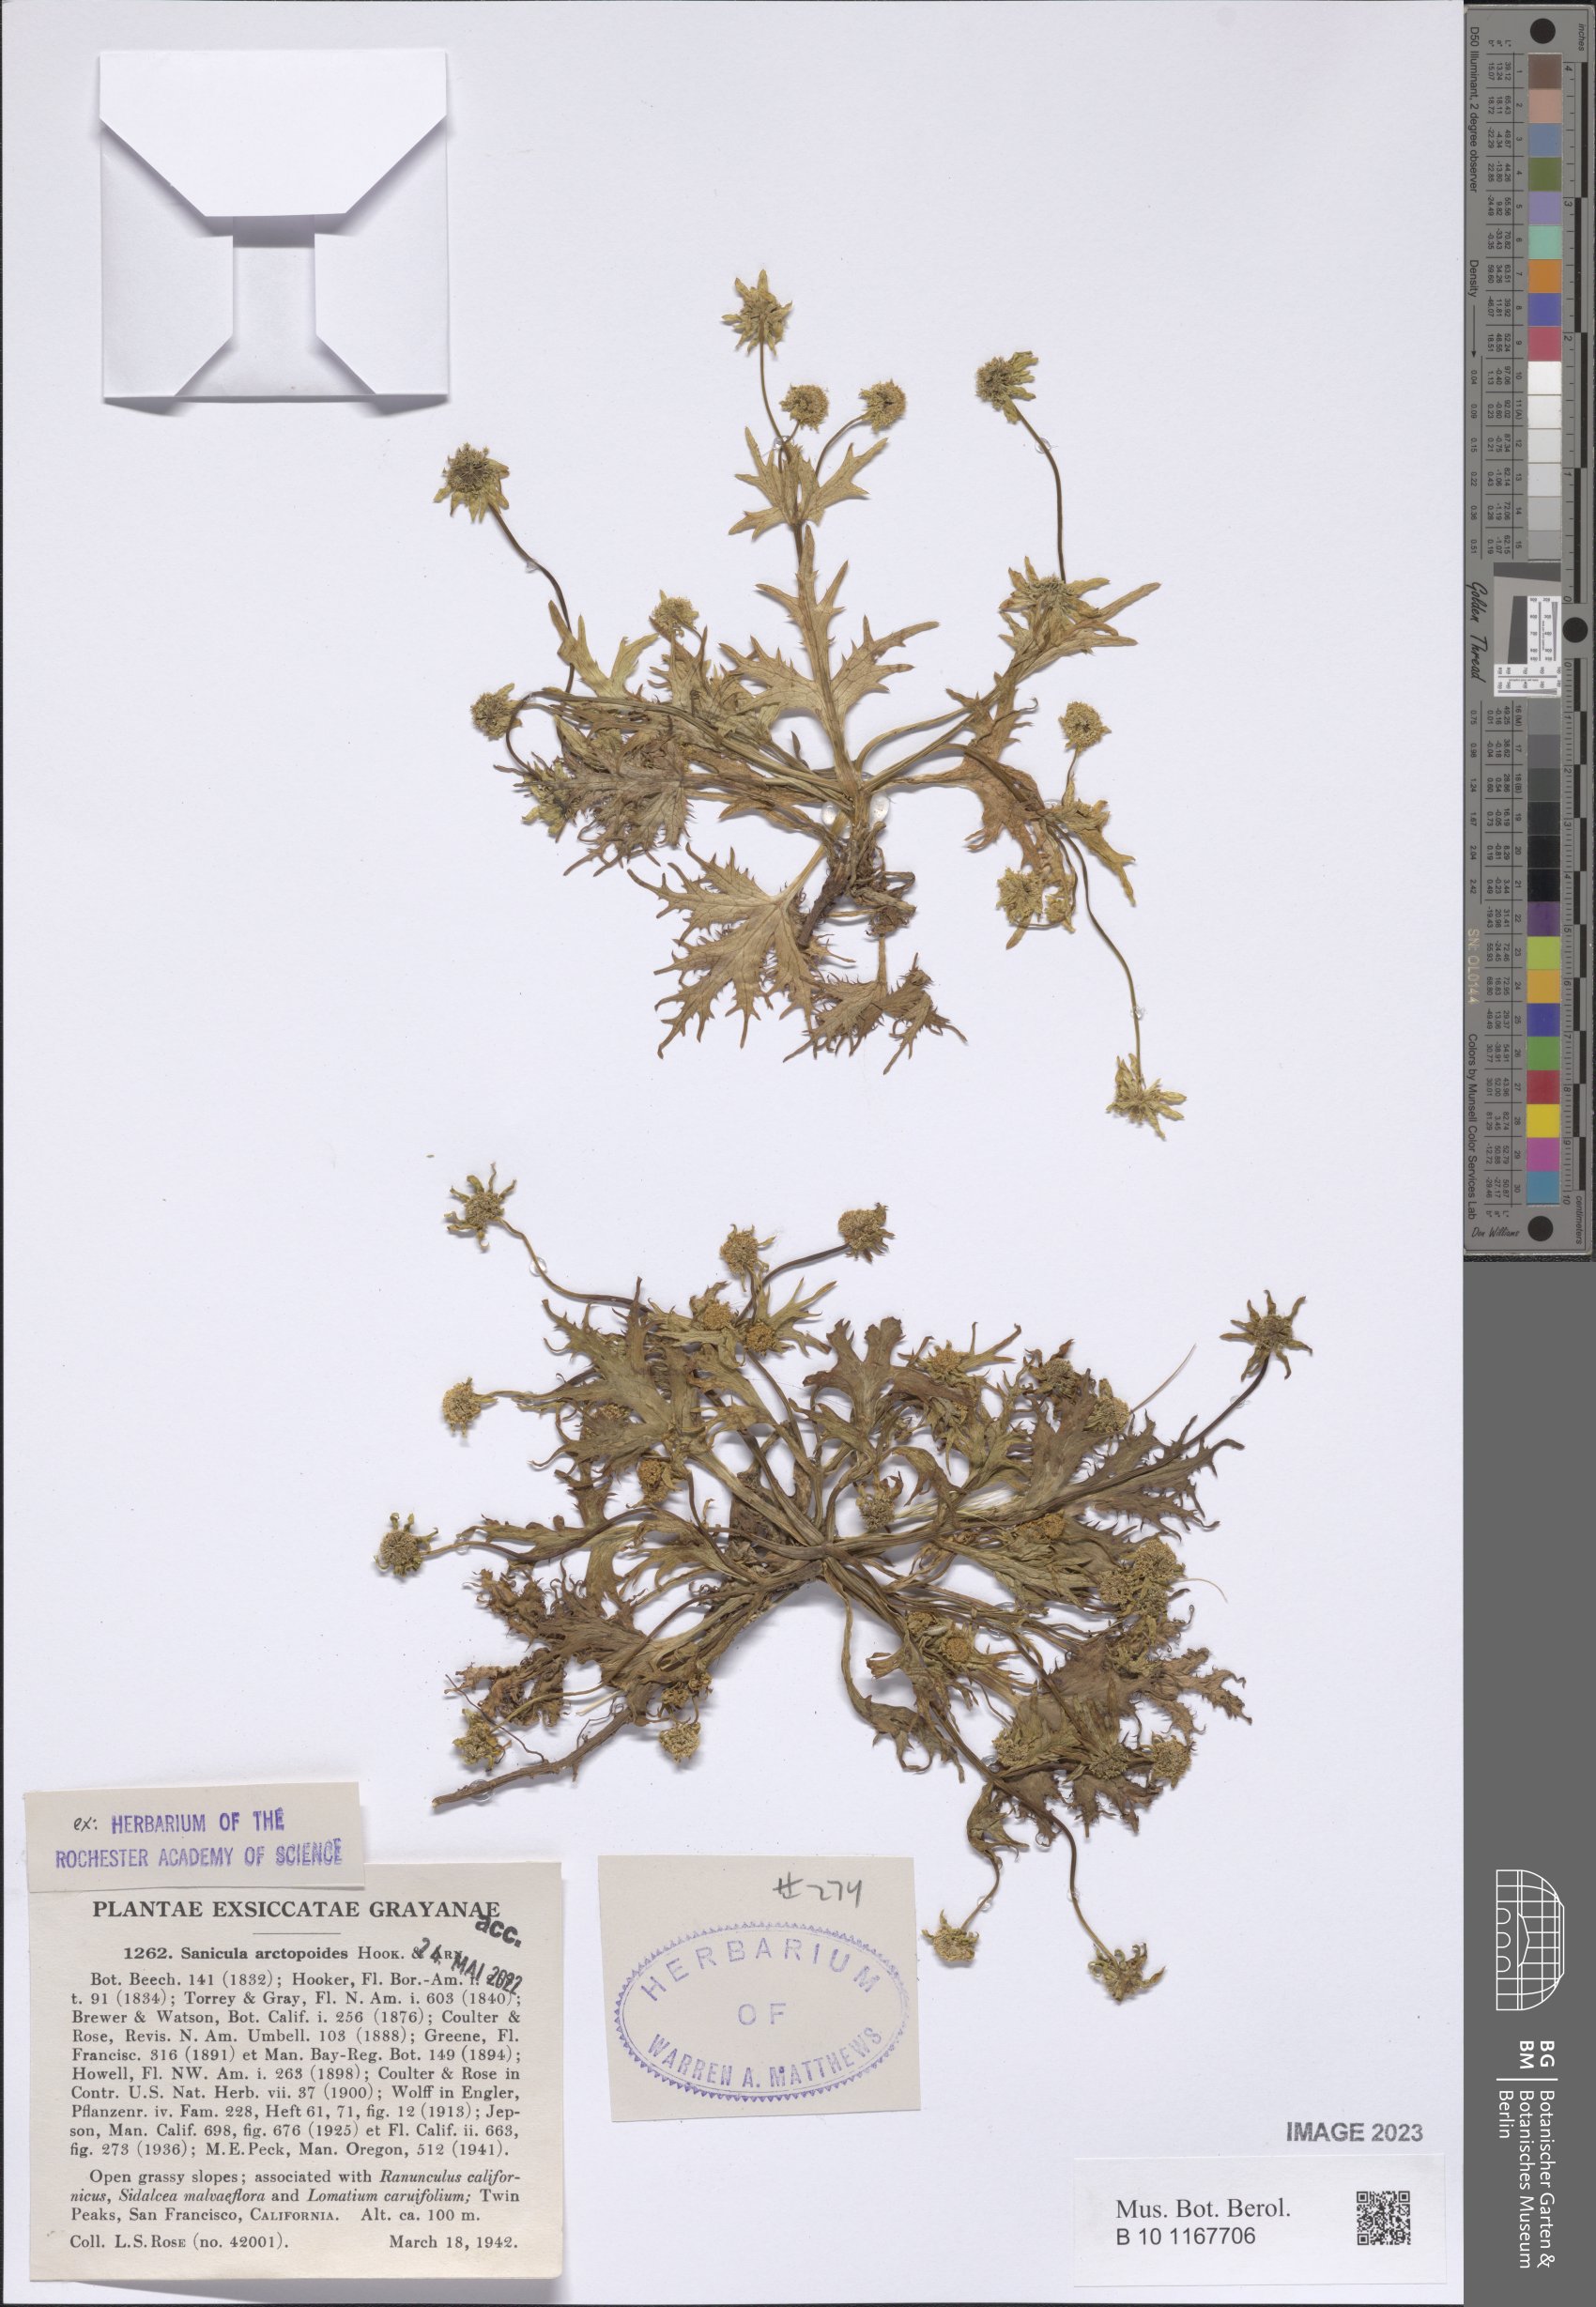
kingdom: Plantae
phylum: Tracheophyta
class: Magnoliopsida
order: Apiales
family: Apiaceae
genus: Sanicula
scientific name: Sanicula arctopoides
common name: Footsteps-of-spring
